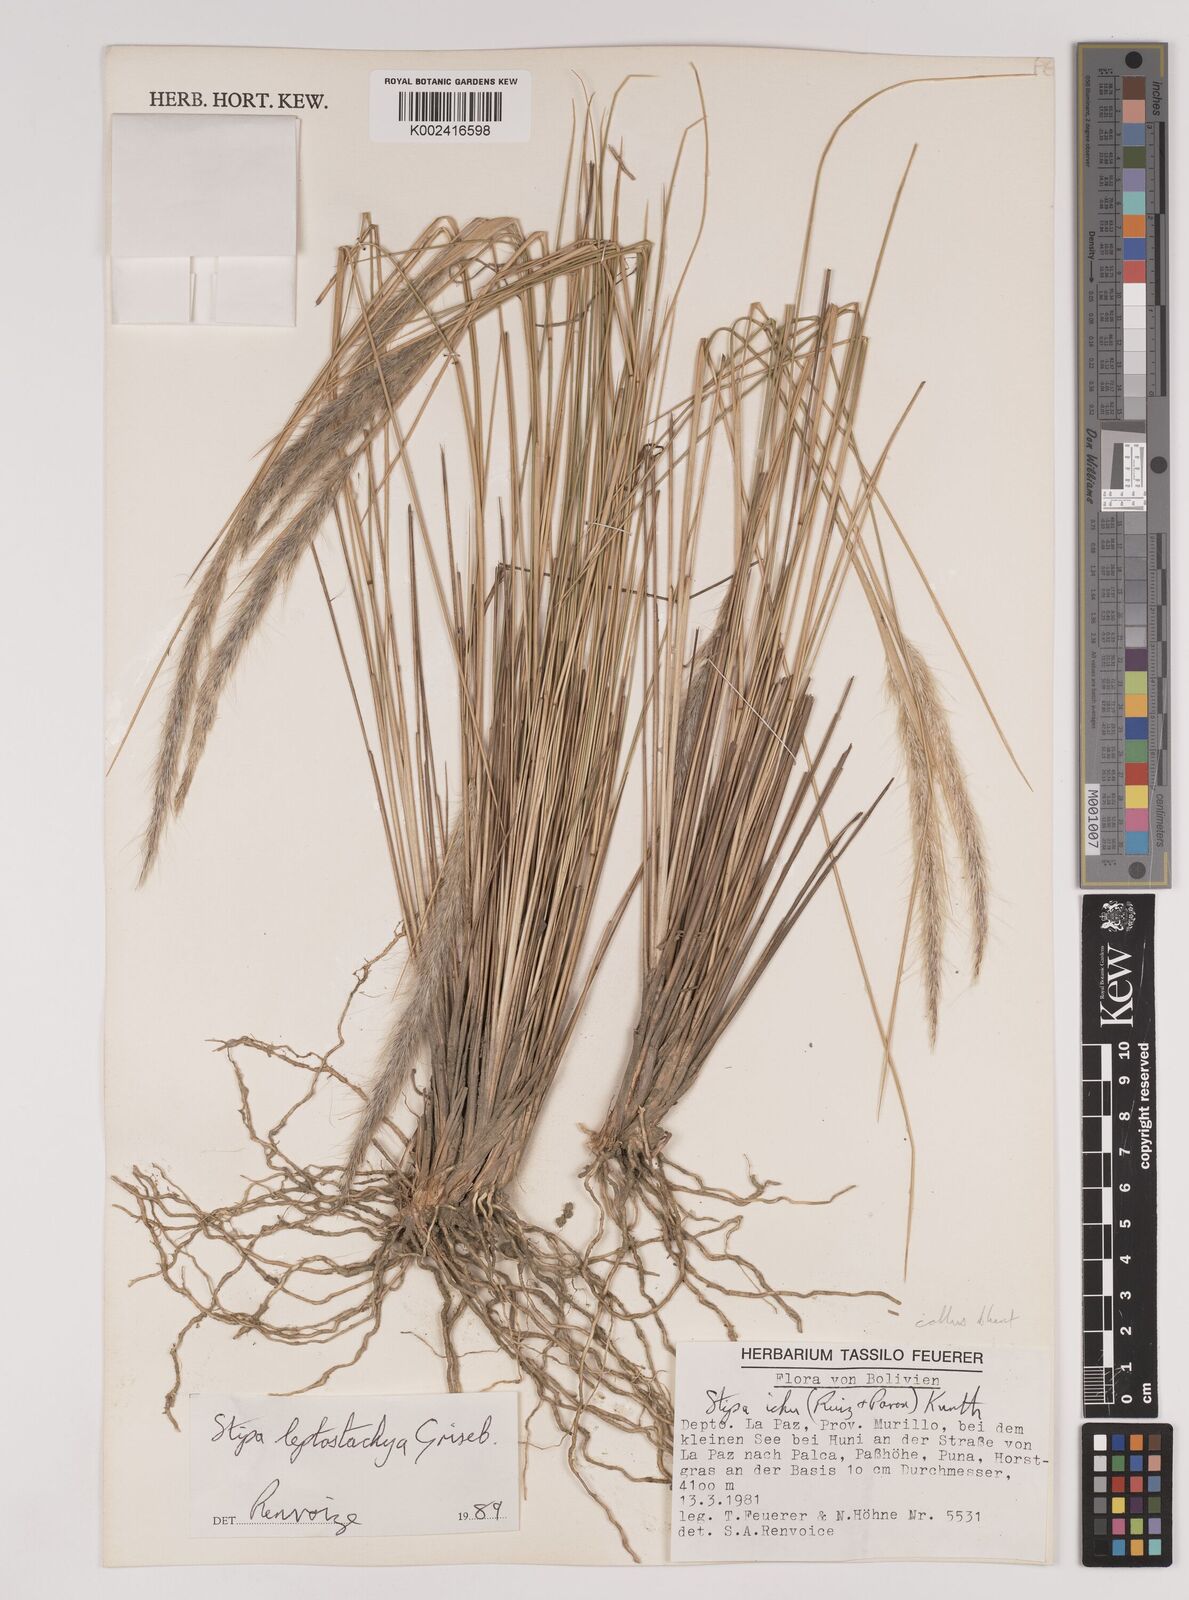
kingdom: Plantae
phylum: Tracheophyta
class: Liliopsida
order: Poales
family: Poaceae
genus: Jarava
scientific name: Jarava leptostachya
